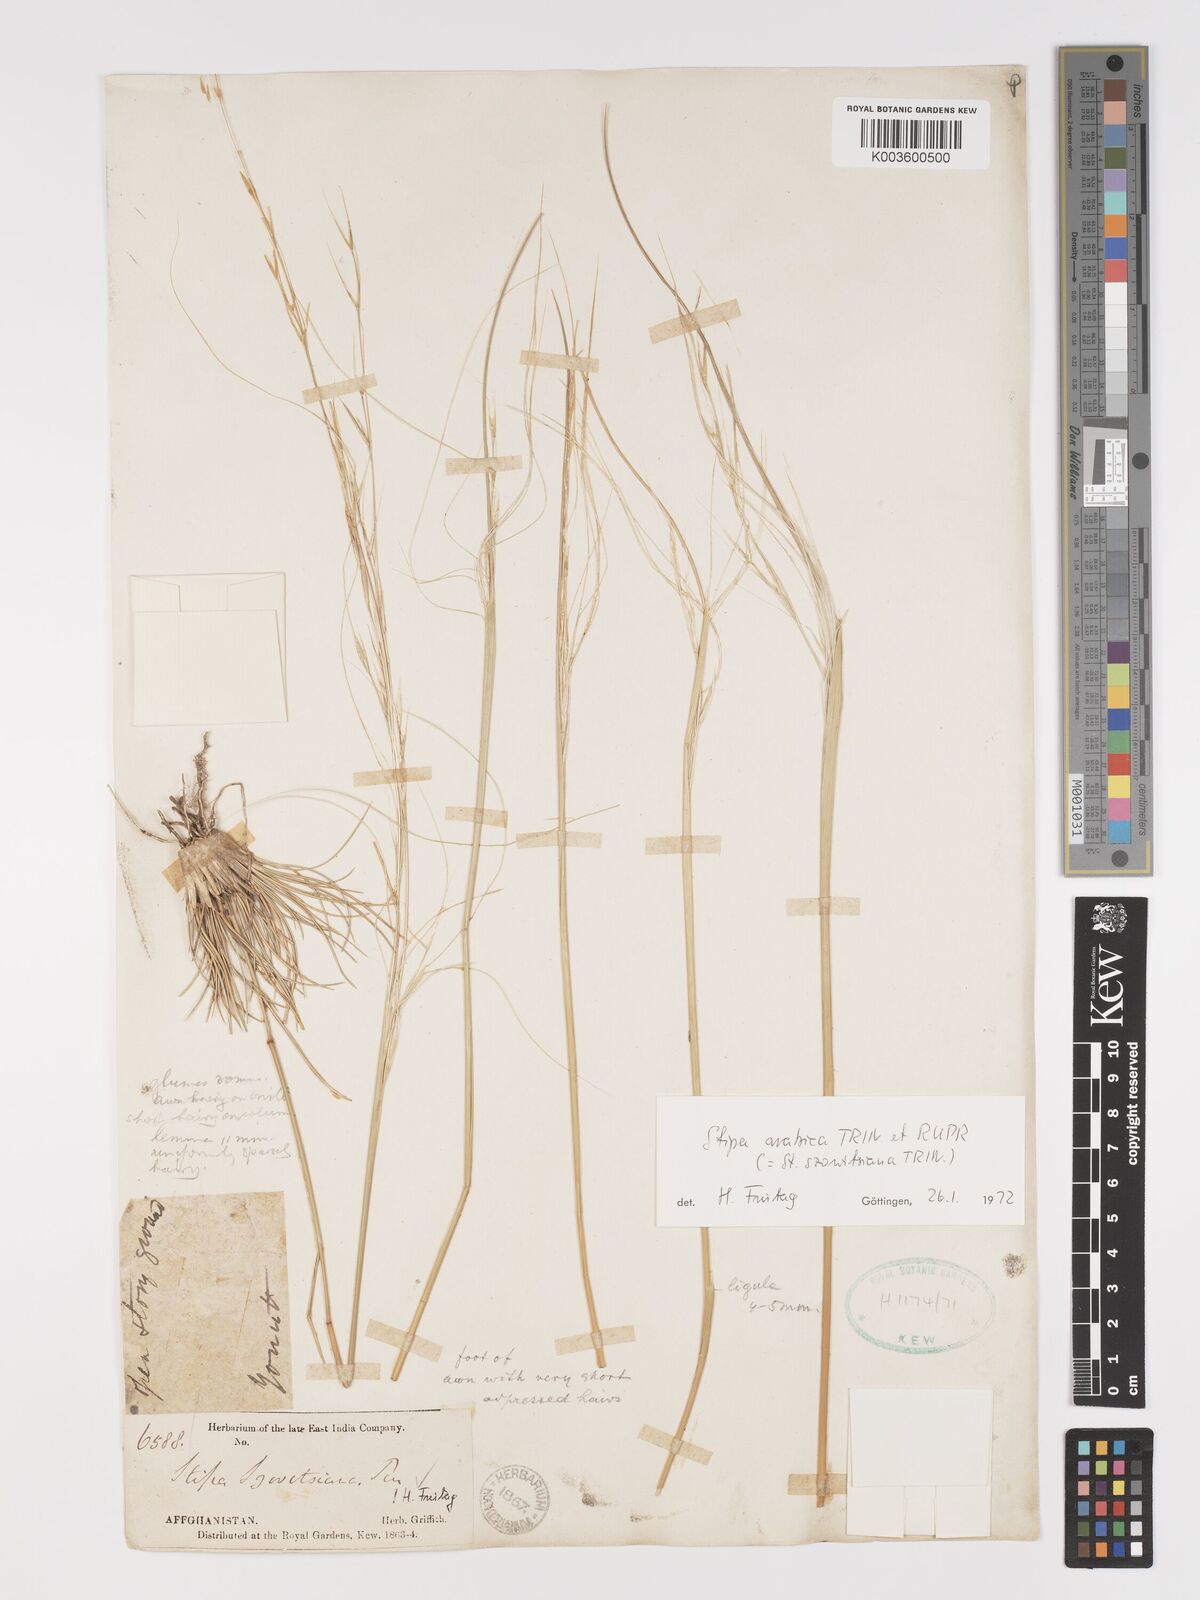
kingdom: Plantae
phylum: Tracheophyta
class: Liliopsida
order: Poales
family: Poaceae
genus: Stipa
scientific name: Stipa arabica
